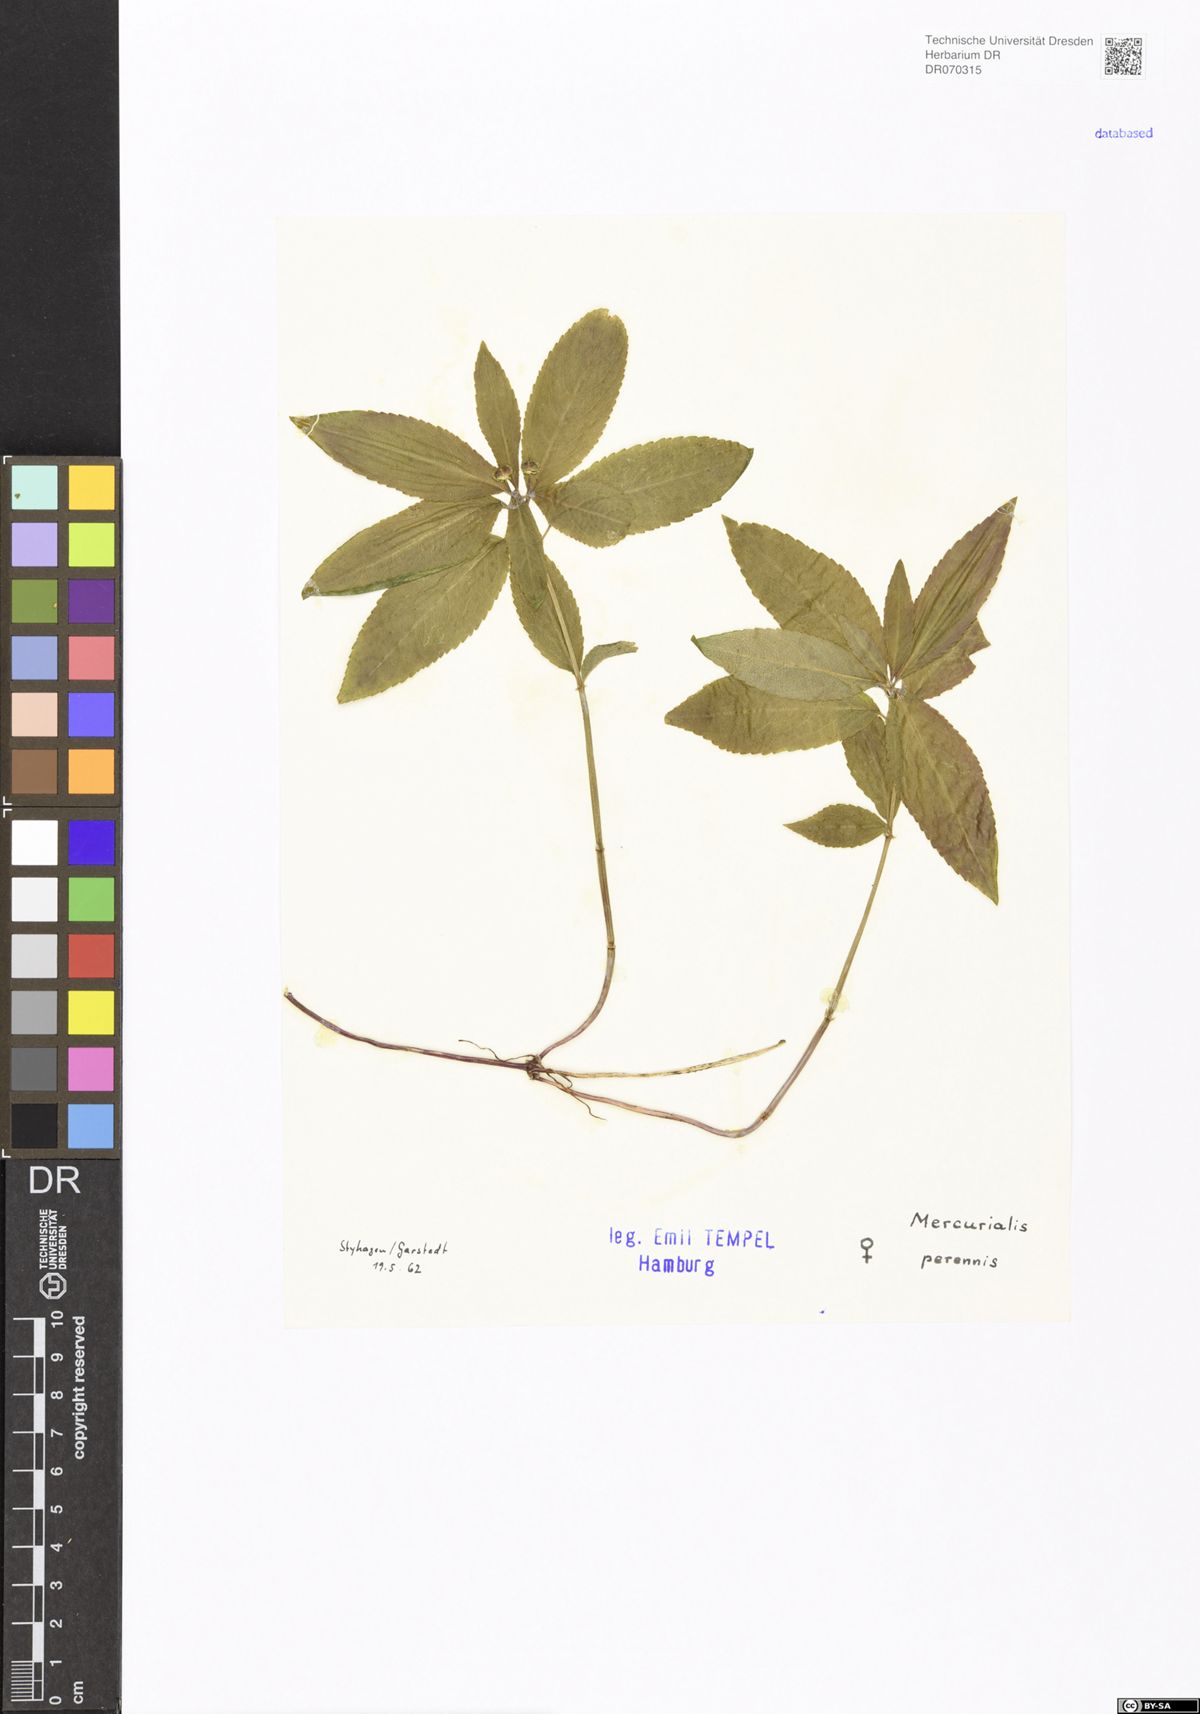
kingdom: Plantae
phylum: Tracheophyta
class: Magnoliopsida
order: Malpighiales
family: Euphorbiaceae
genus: Mercurialis
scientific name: Mercurialis perennis
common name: Dog mercury
